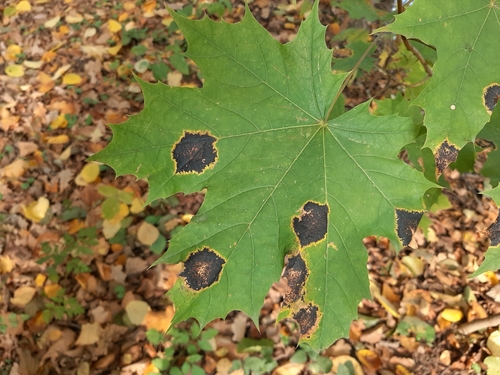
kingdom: Fungi
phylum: Ascomycota
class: Leotiomycetes
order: Rhytismatales
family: Rhytismataceae
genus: Rhytisma
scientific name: Rhytisma acerinum
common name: European tar spot
